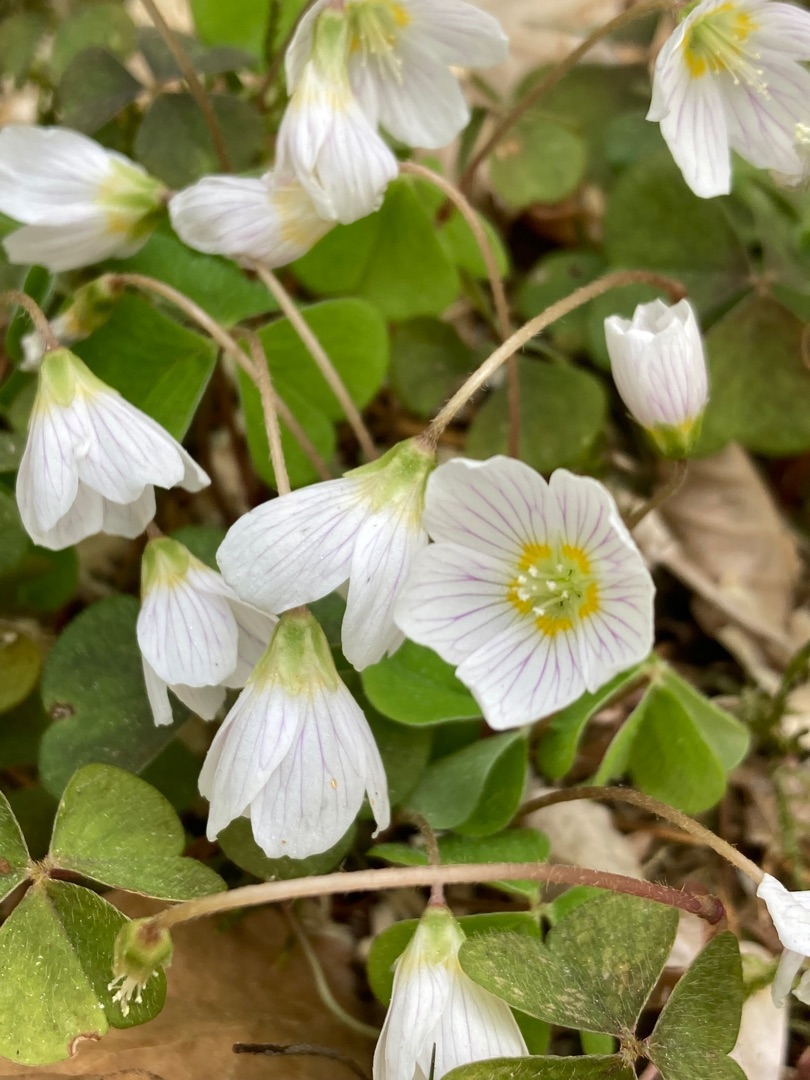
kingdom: Plantae
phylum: Tracheophyta
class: Magnoliopsida
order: Oxalidales
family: Oxalidaceae
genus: Oxalis
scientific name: Oxalis acetosella
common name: Skovsyre
